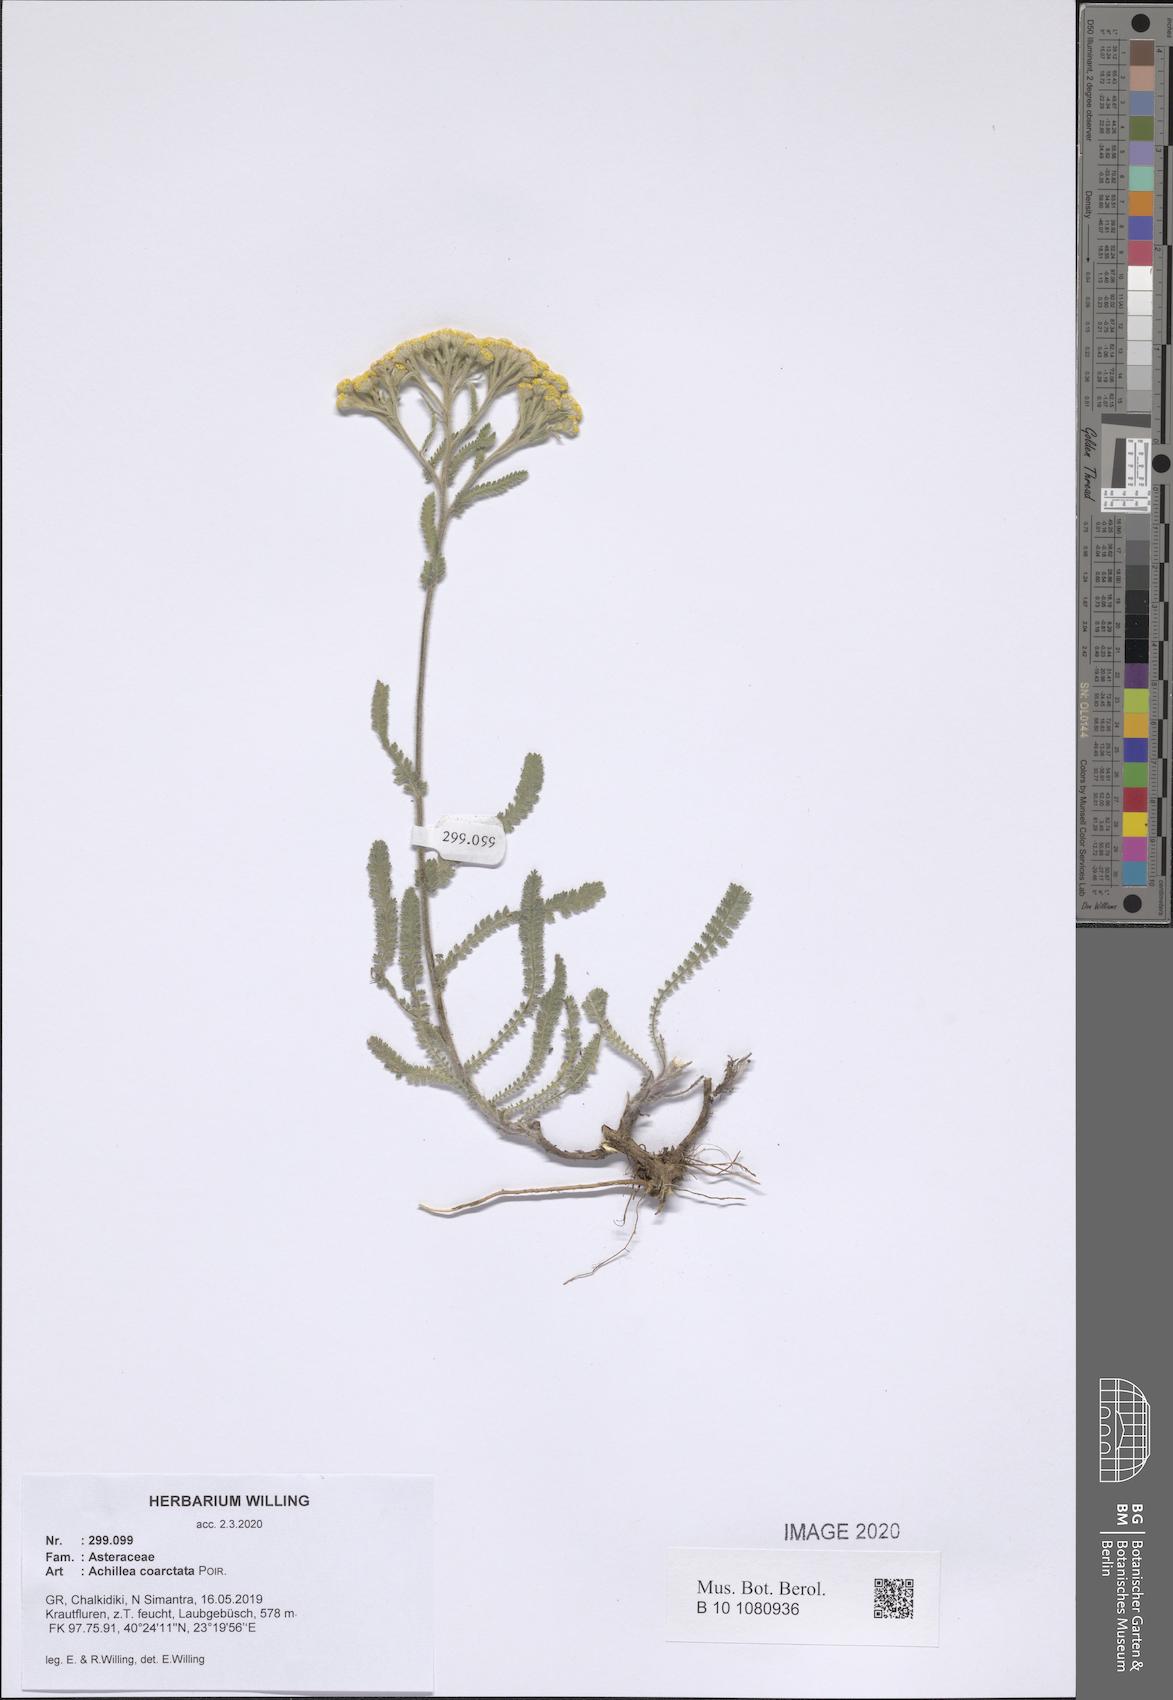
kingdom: Plantae
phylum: Tracheophyta
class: Magnoliopsida
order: Asterales
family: Asteraceae
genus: Achillea
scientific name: Achillea coarctata
